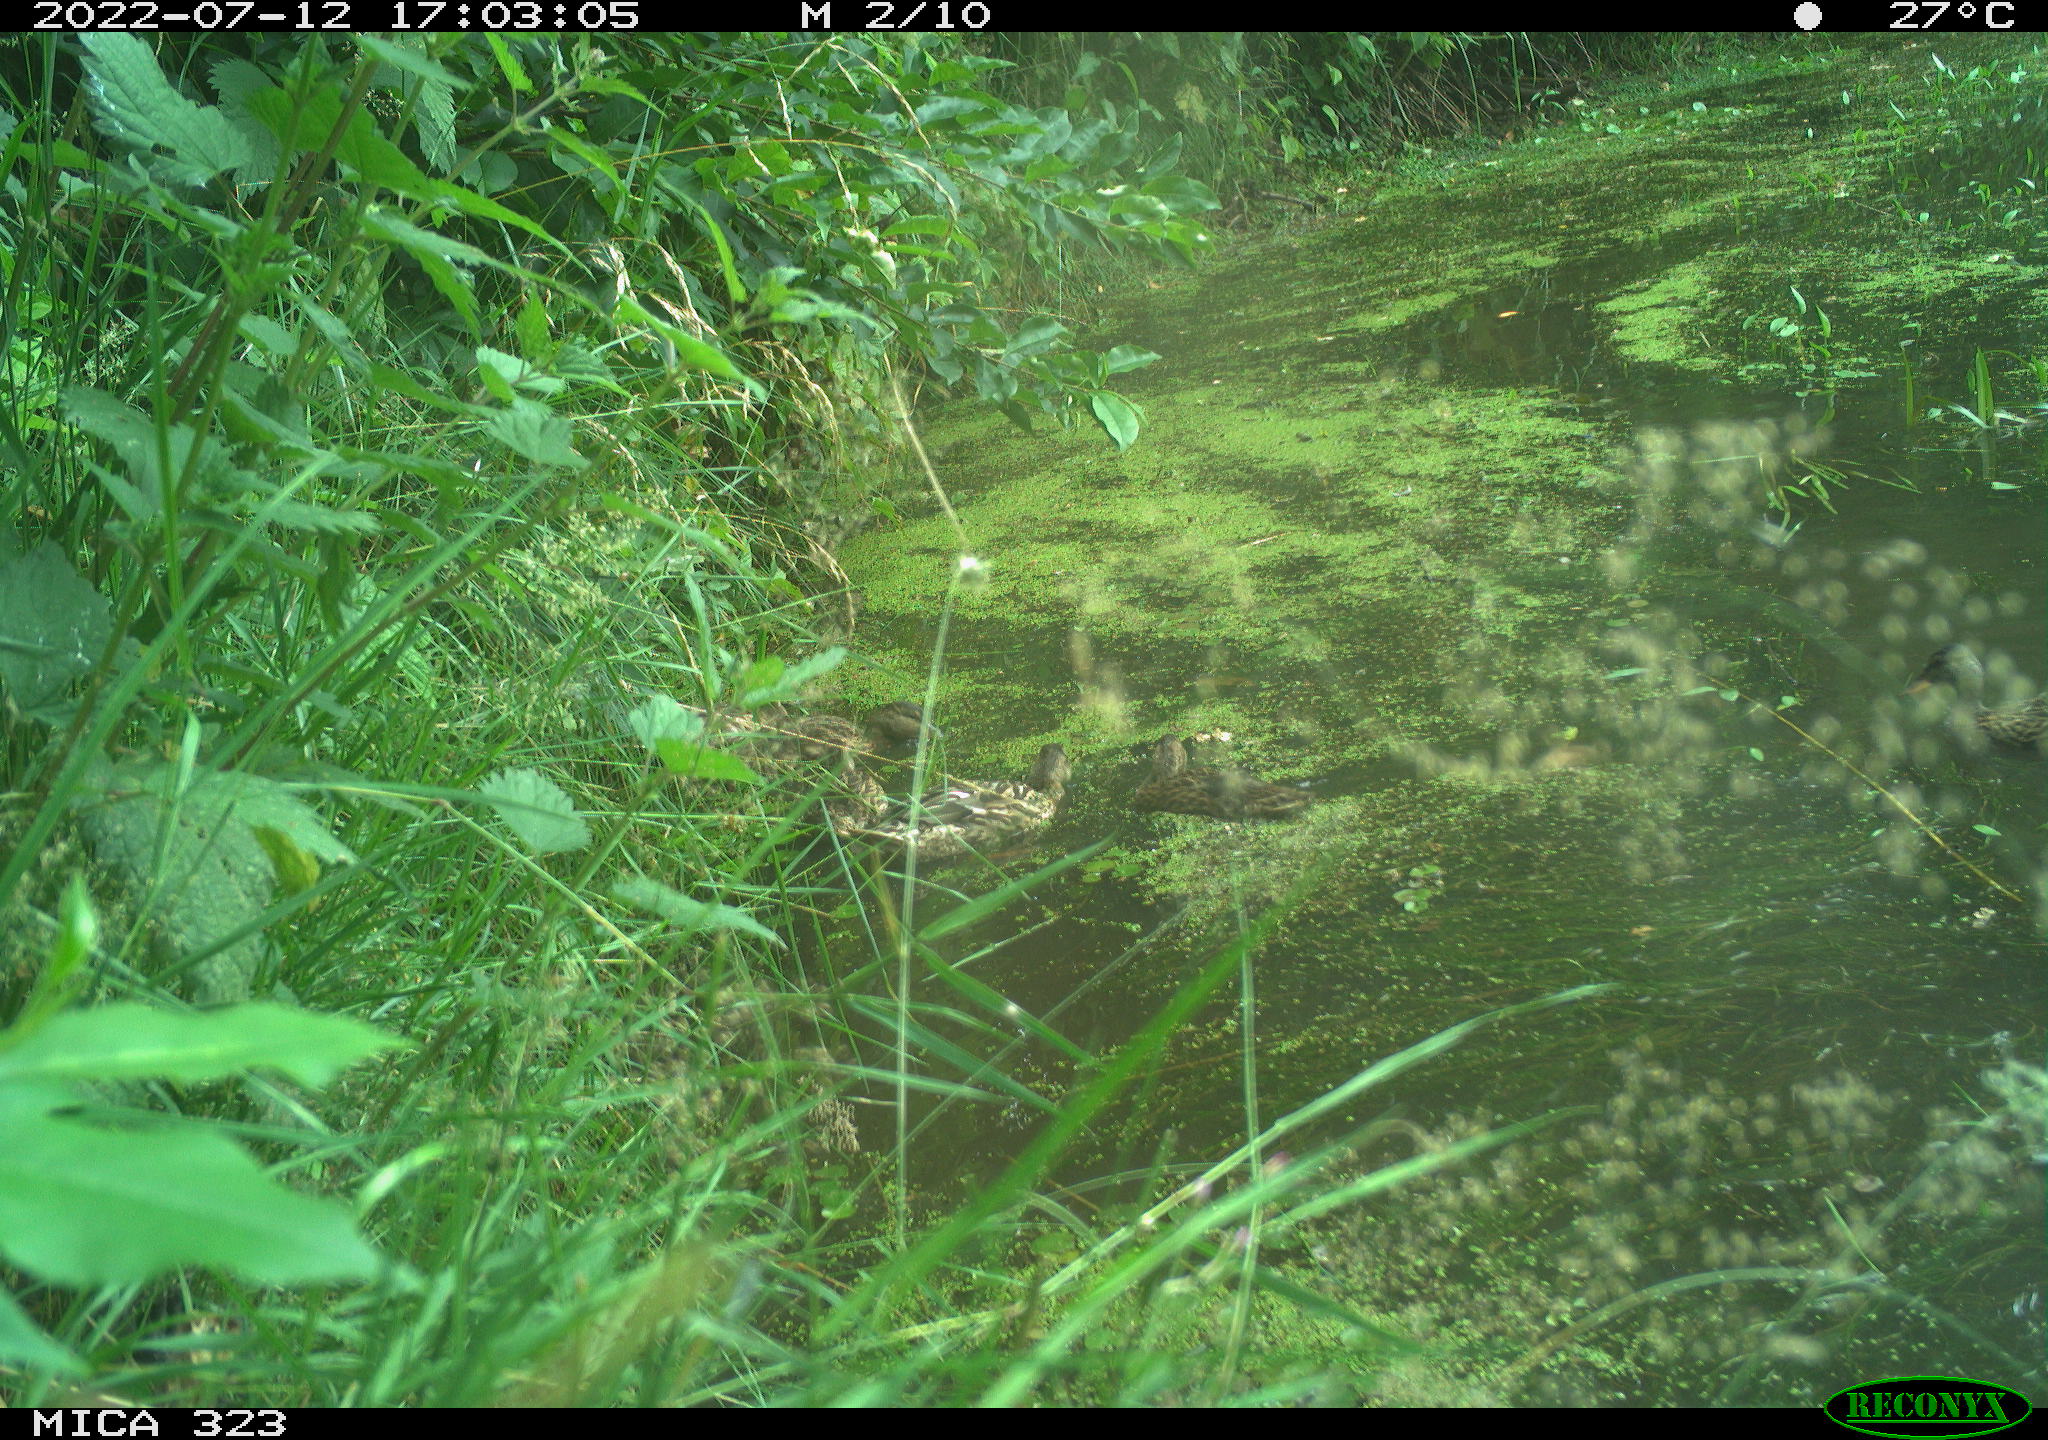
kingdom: Animalia
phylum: Chordata
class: Aves
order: Anseriformes
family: Anatidae
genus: Anas
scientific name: Anas platyrhynchos
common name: Mallard
